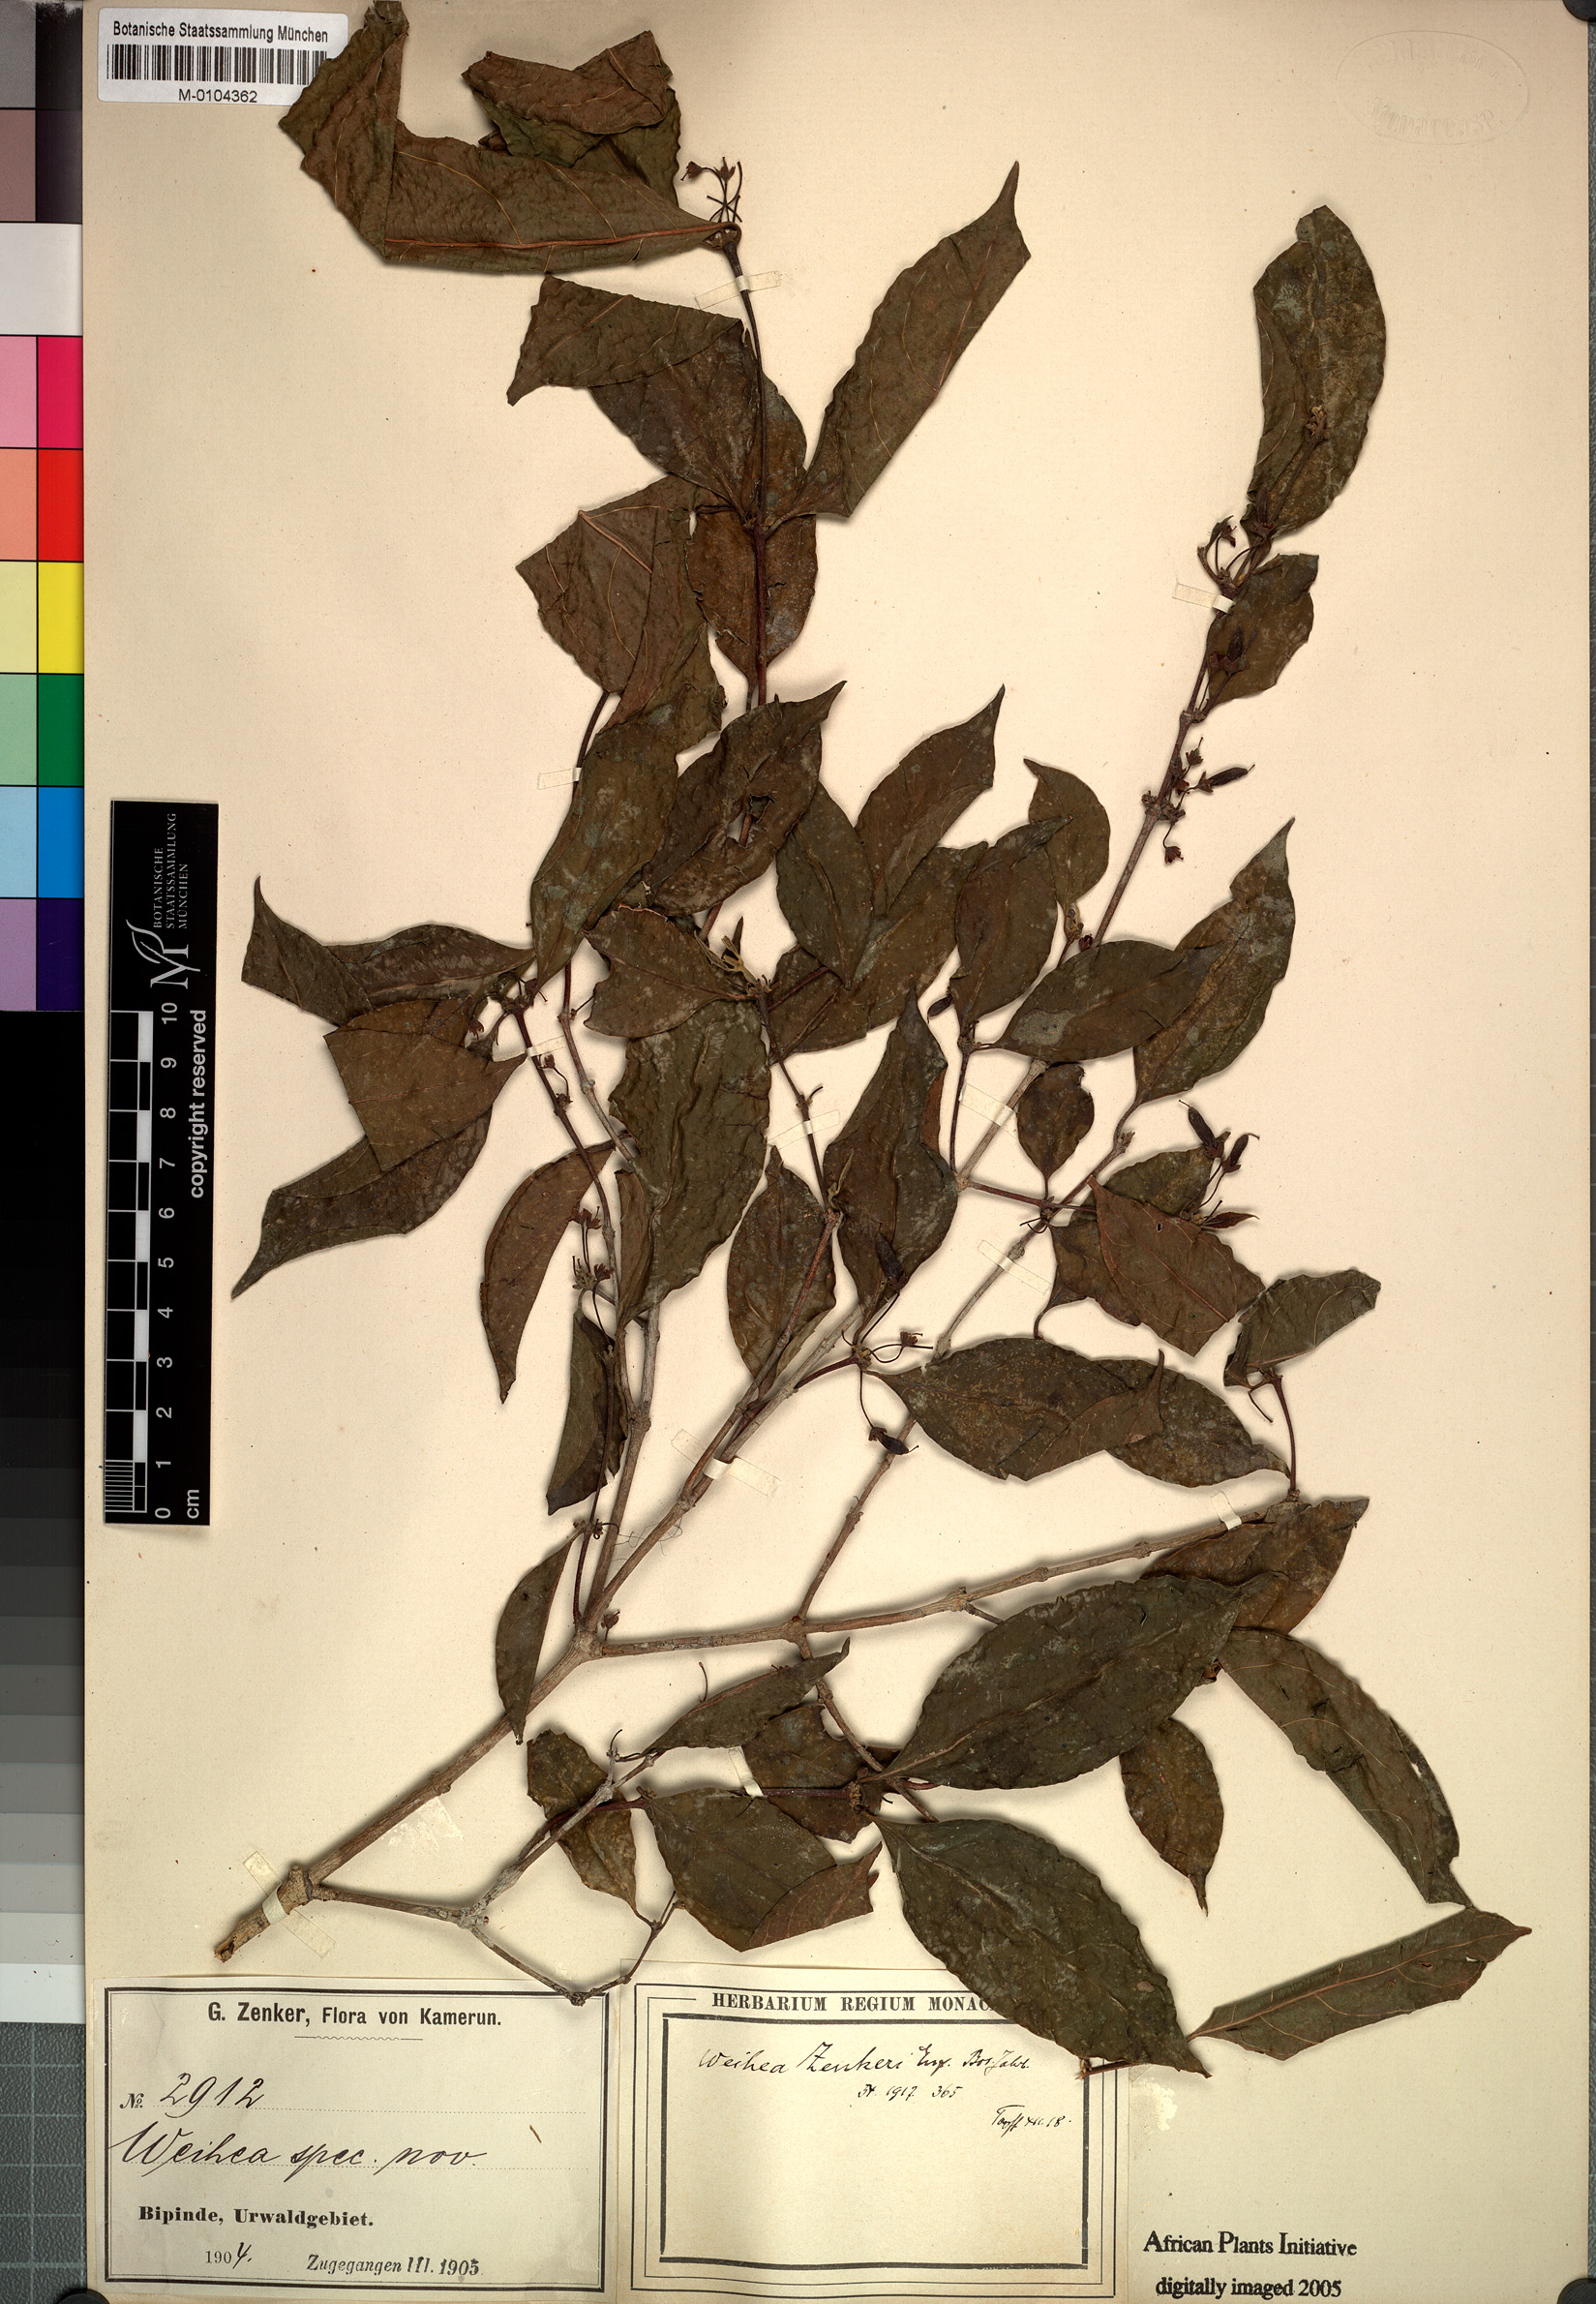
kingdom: Plantae
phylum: Tracheophyta
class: Magnoliopsida
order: Malpighiales
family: Rhizophoraceae
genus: Cassipourea
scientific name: Cassipourea zenkeri
